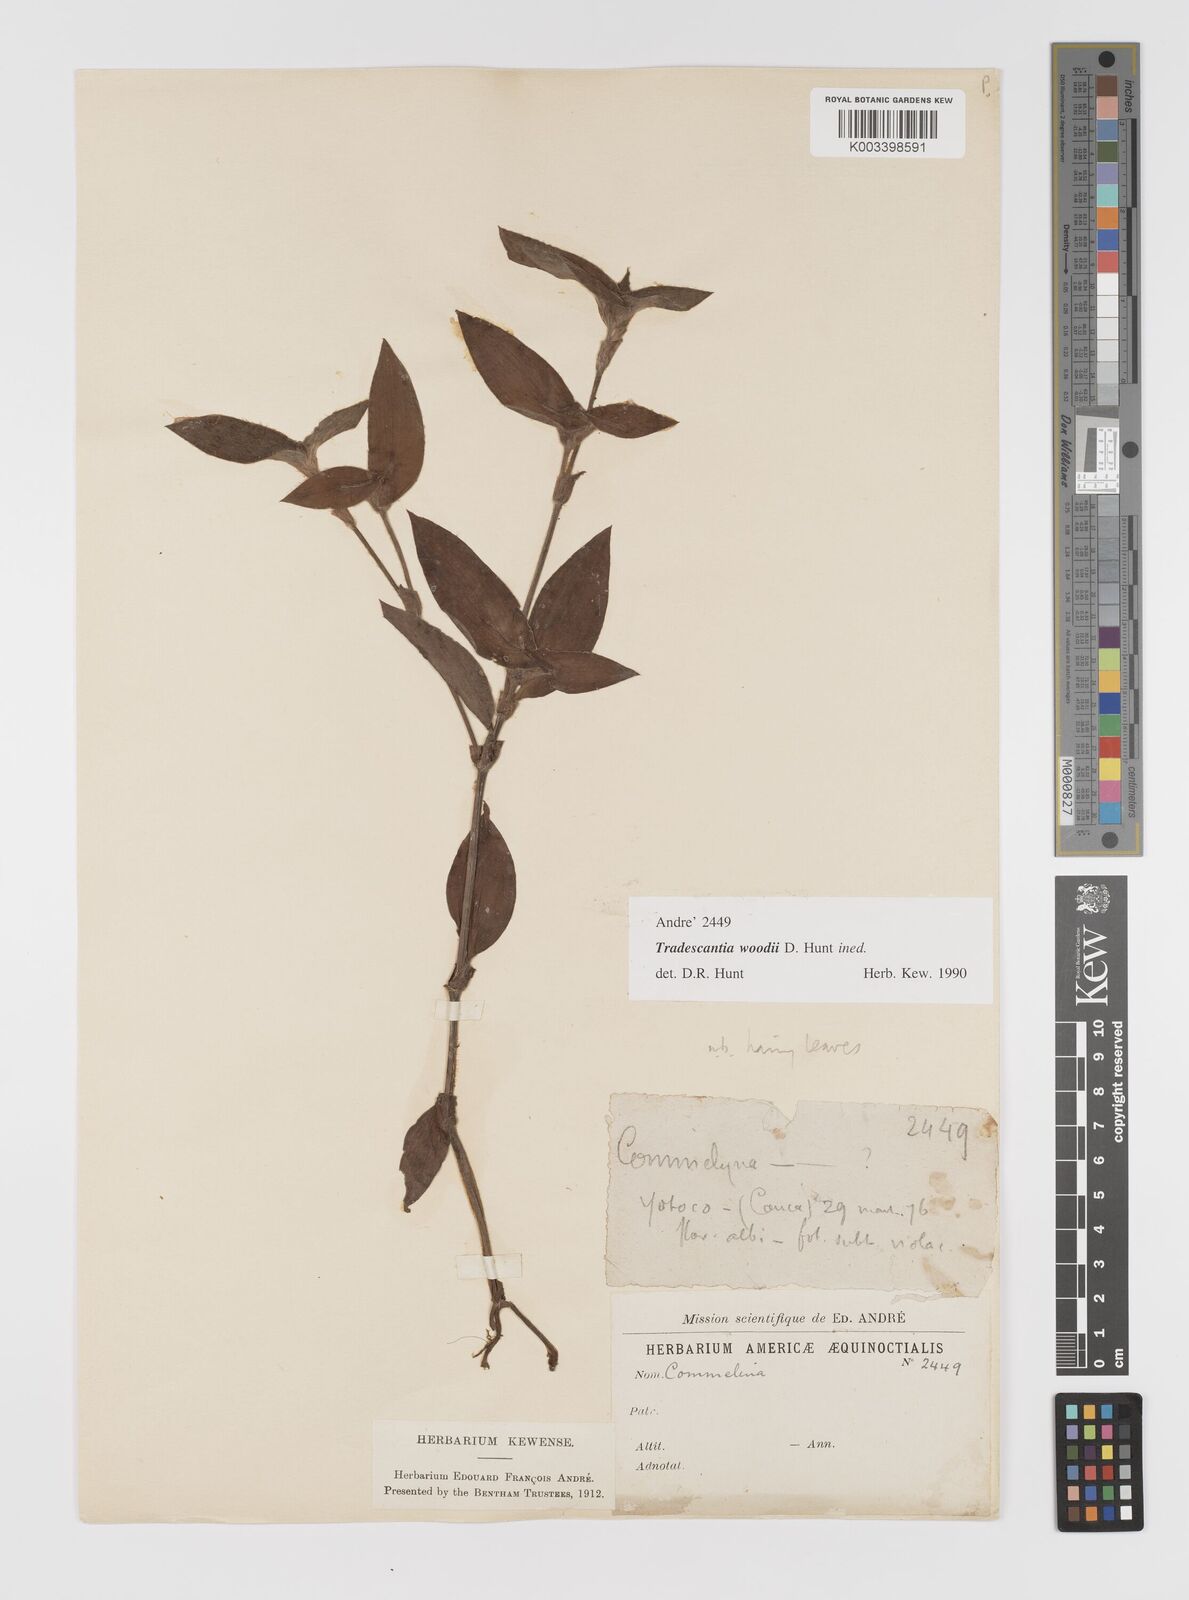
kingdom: Plantae
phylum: Tracheophyta
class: Liliopsida
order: Commelinales
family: Commelinaceae
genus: Tradescantia
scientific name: Tradescantia
